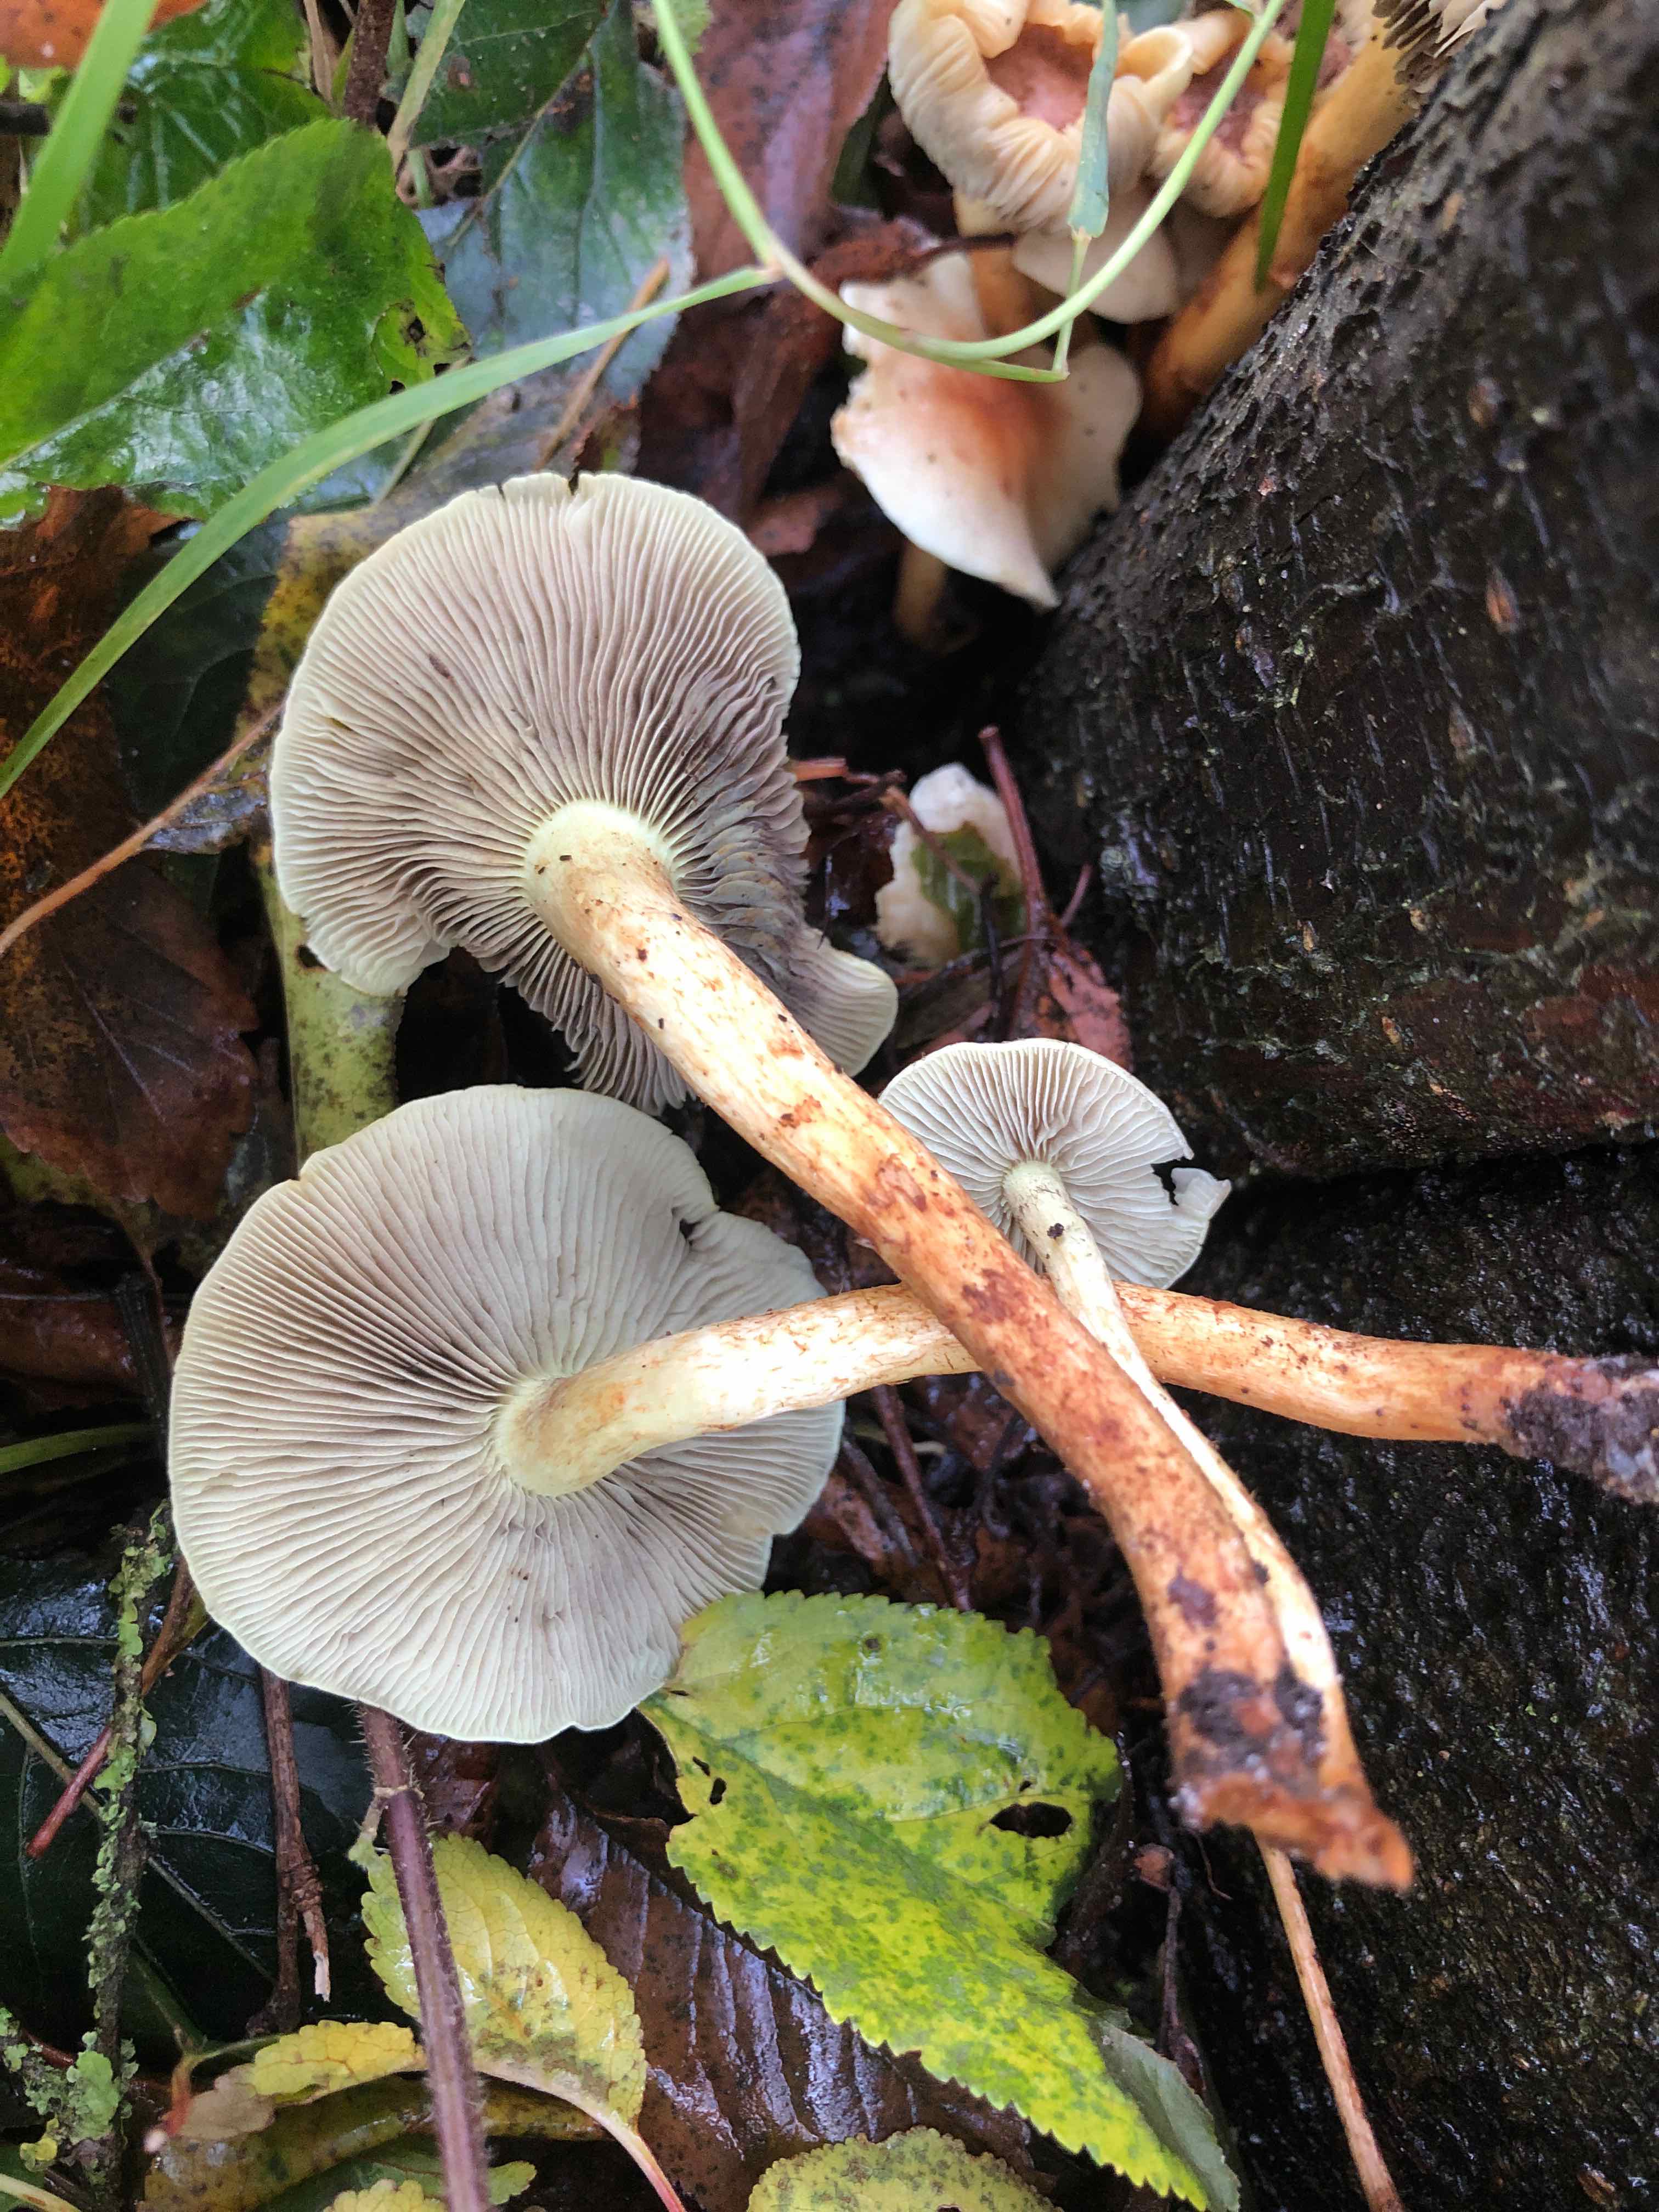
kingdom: Fungi
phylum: Basidiomycota
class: Agaricomycetes
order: Agaricales
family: Strophariaceae
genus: Hypholoma
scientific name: Hypholoma fasciculare
